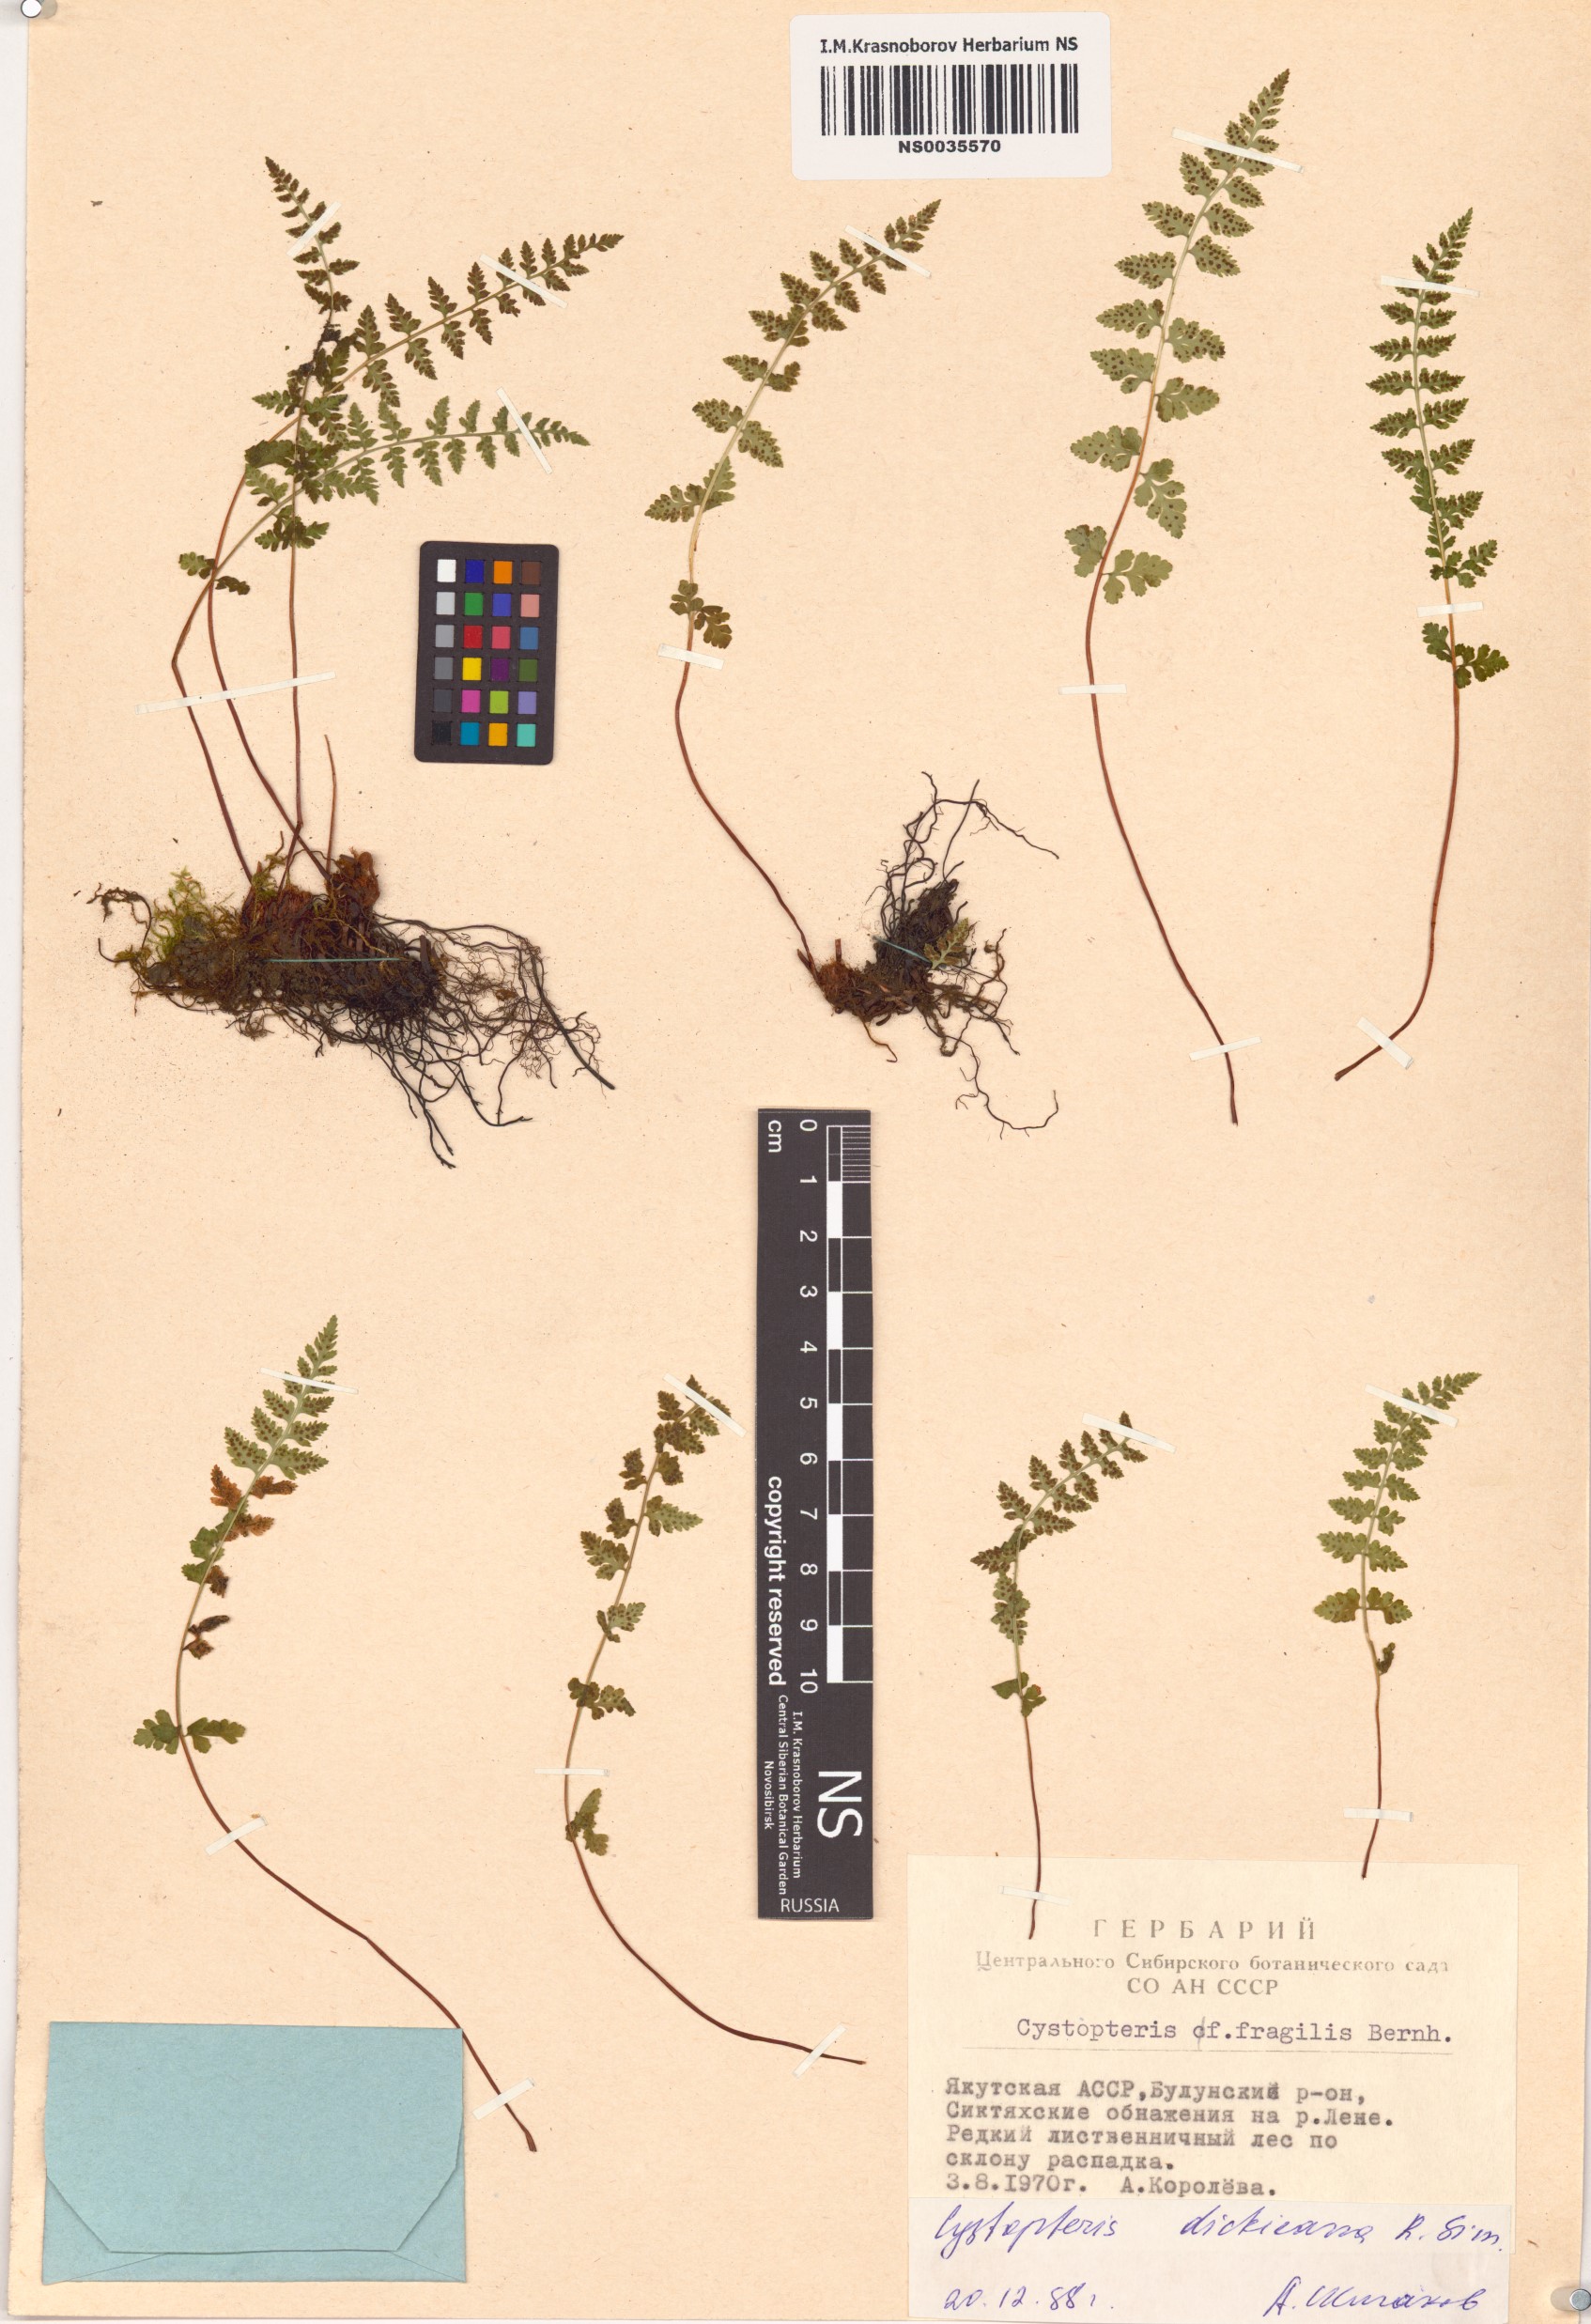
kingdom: Plantae
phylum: Tracheophyta
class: Polypodiopsida
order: Polypodiales
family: Cystopteridaceae
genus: Cystopteris
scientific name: Cystopteris dickieana
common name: Dickie's bladder-fern
